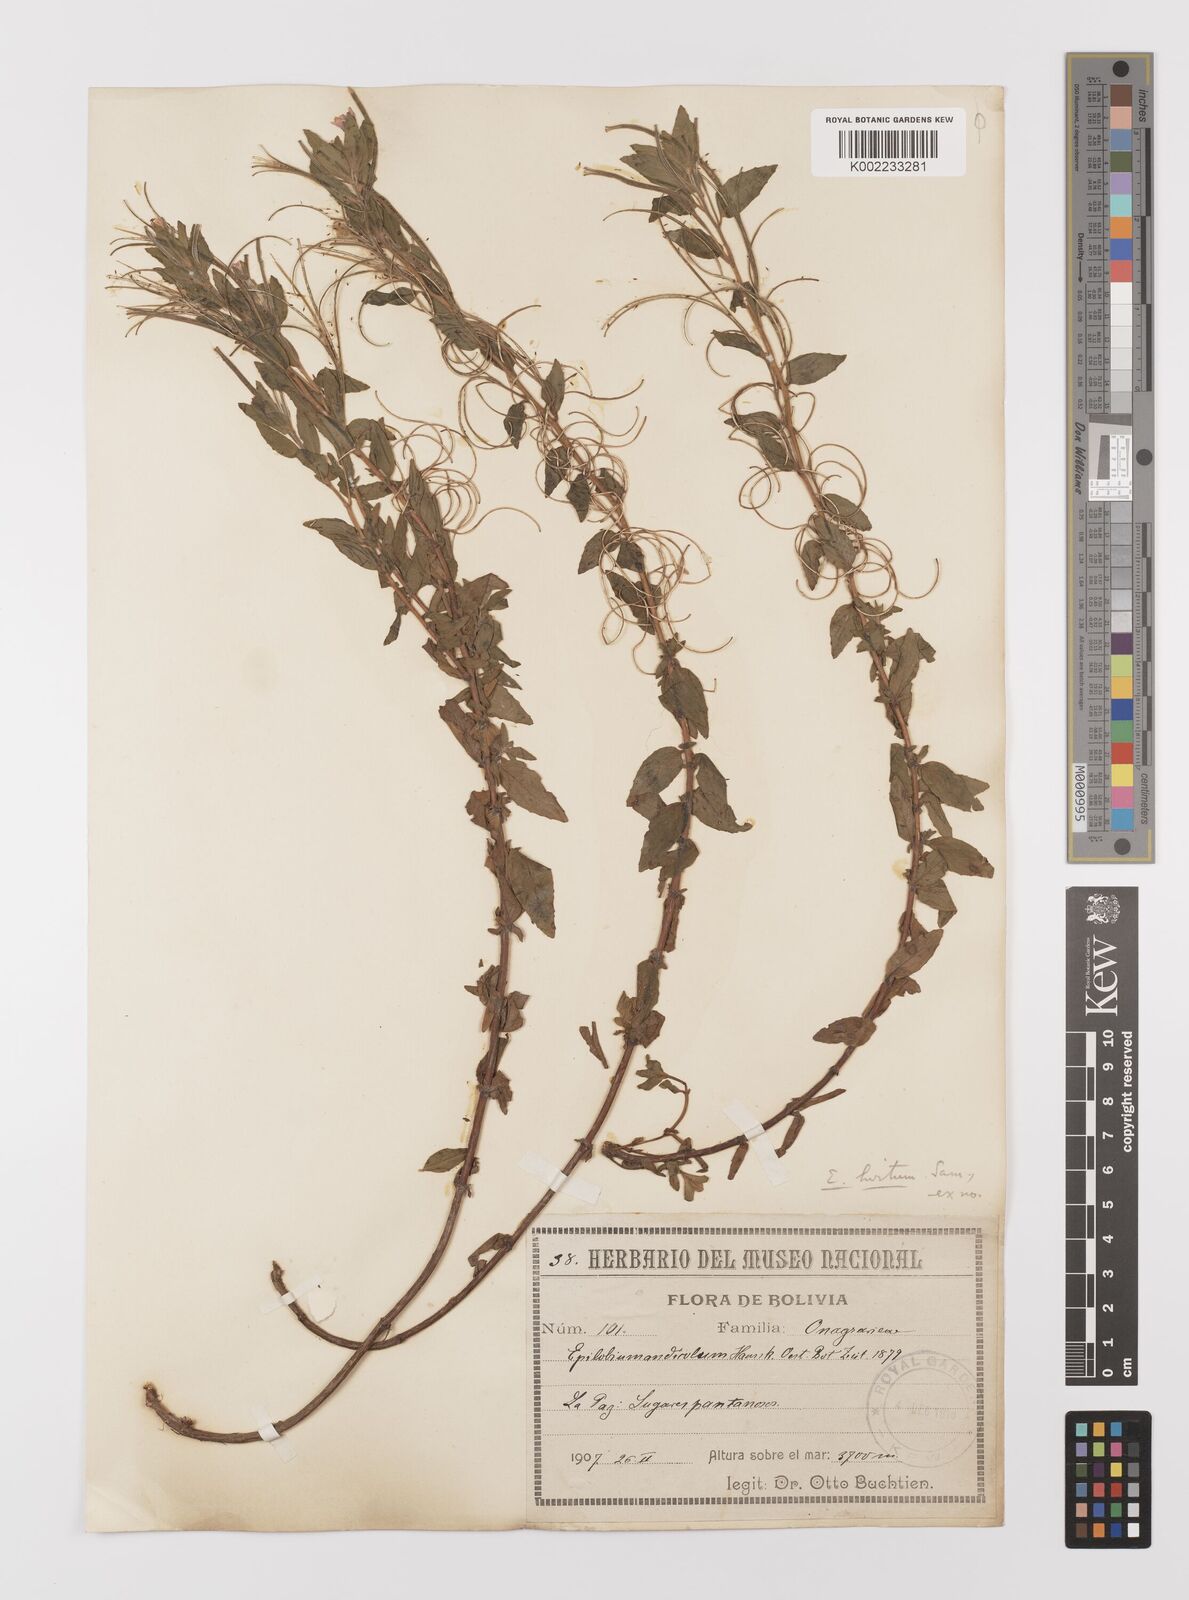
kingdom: Plantae
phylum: Tracheophyta
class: Magnoliopsida
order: Myrtales
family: Onagraceae
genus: Epilobium
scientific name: Epilobium hirsutum
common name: Great willowherb
